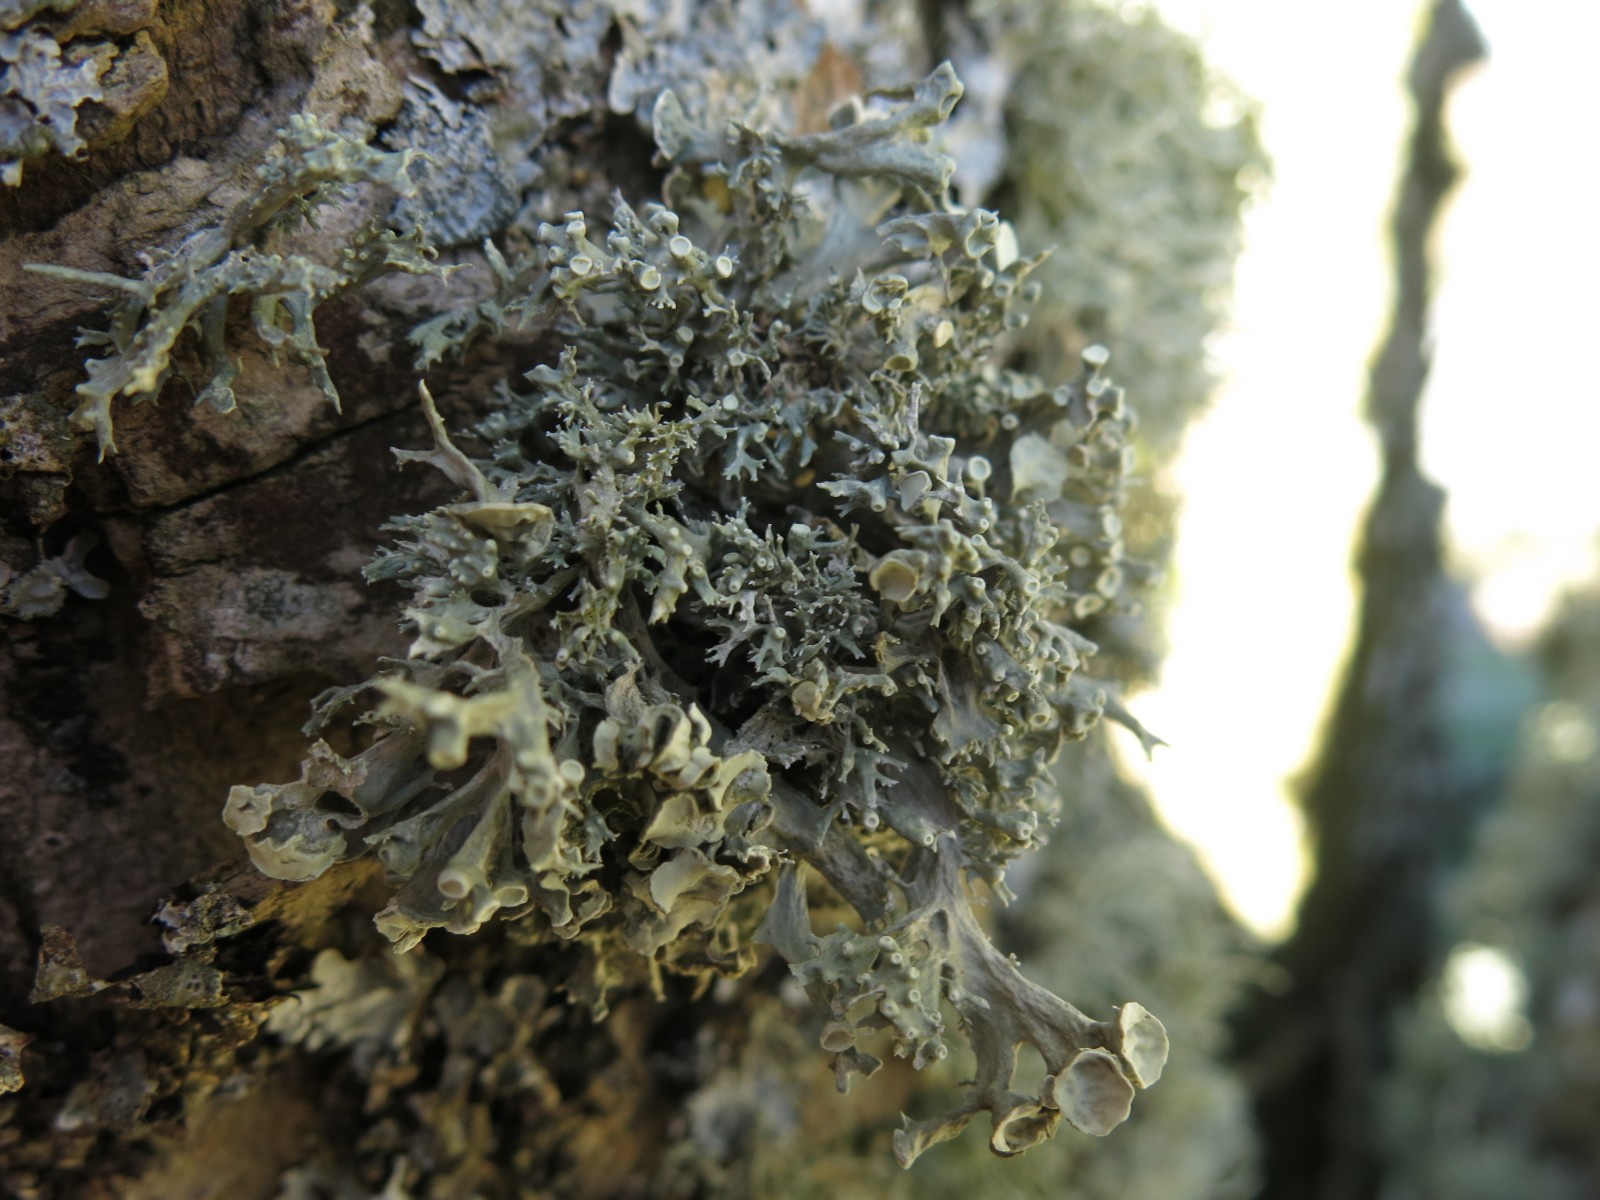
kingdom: Fungi
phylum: Ascomycota
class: Lecanoromycetes
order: Lecanorales
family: Ramalinaceae
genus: Ramalina
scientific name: Ramalina fastigiata
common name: tue-grenlav
